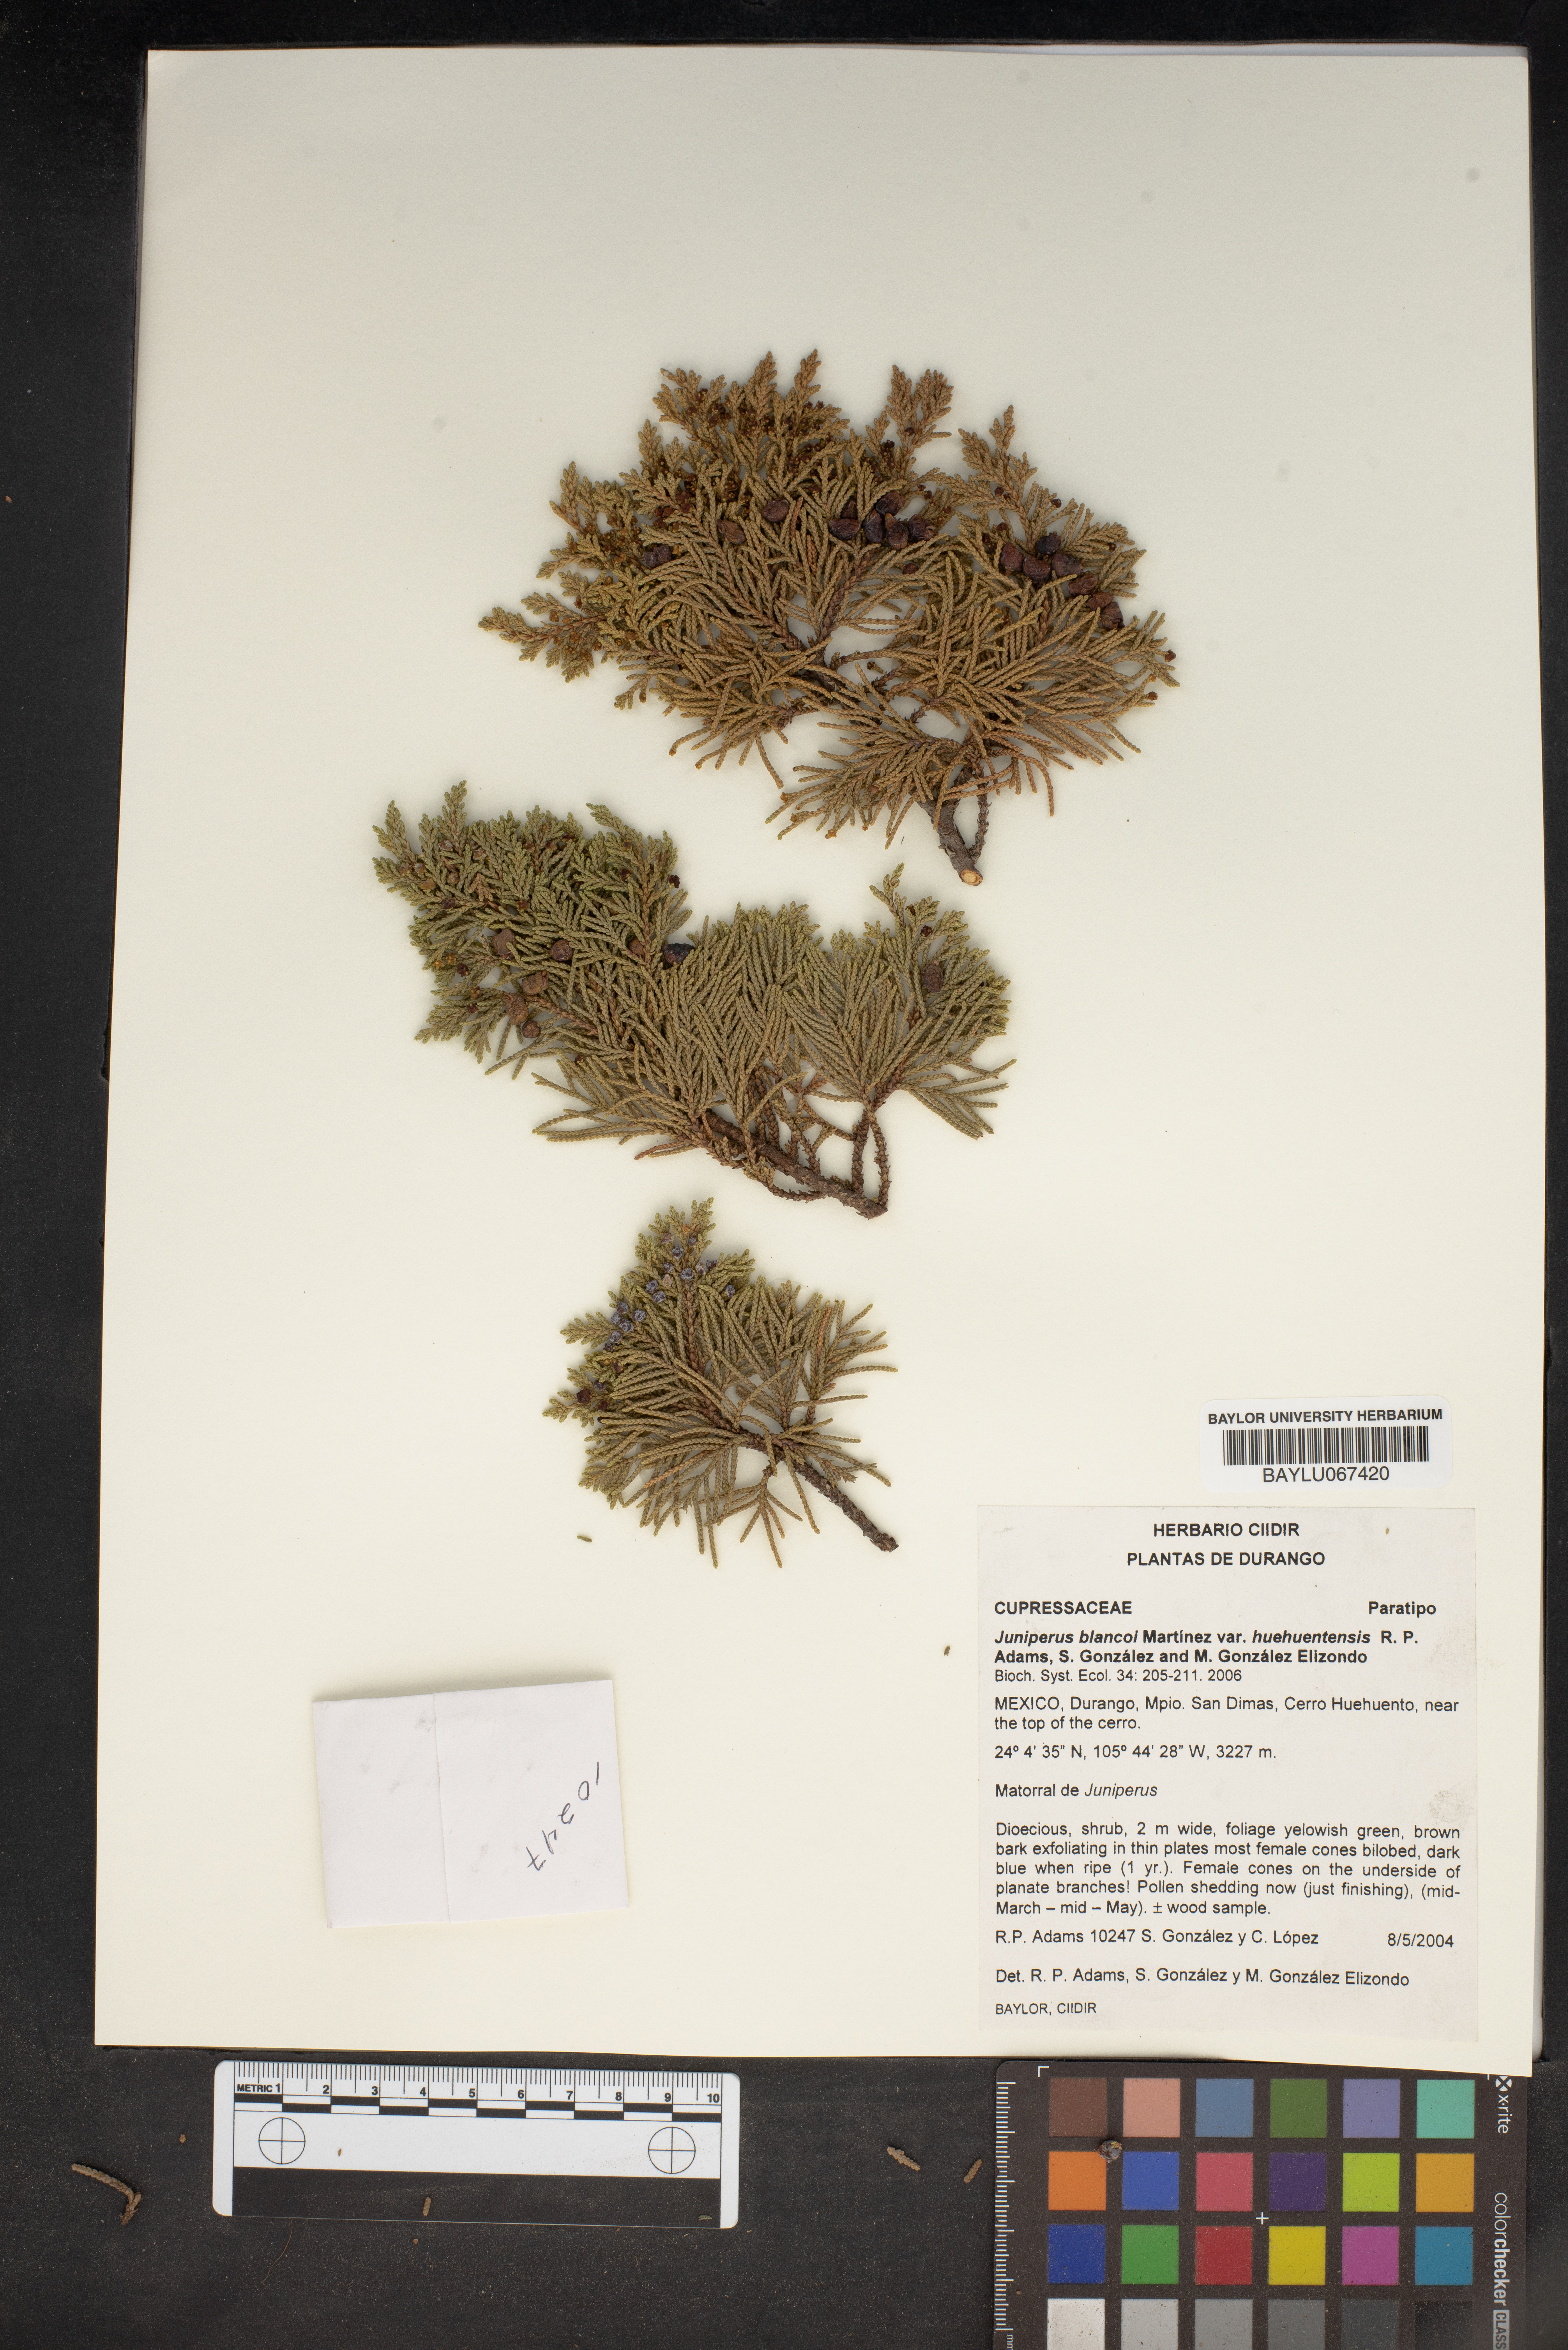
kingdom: Plantae
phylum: Tracheophyta
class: Pinopsida
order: Pinales
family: Cupressaceae
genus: Juniperus
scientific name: Juniperus blancoi
